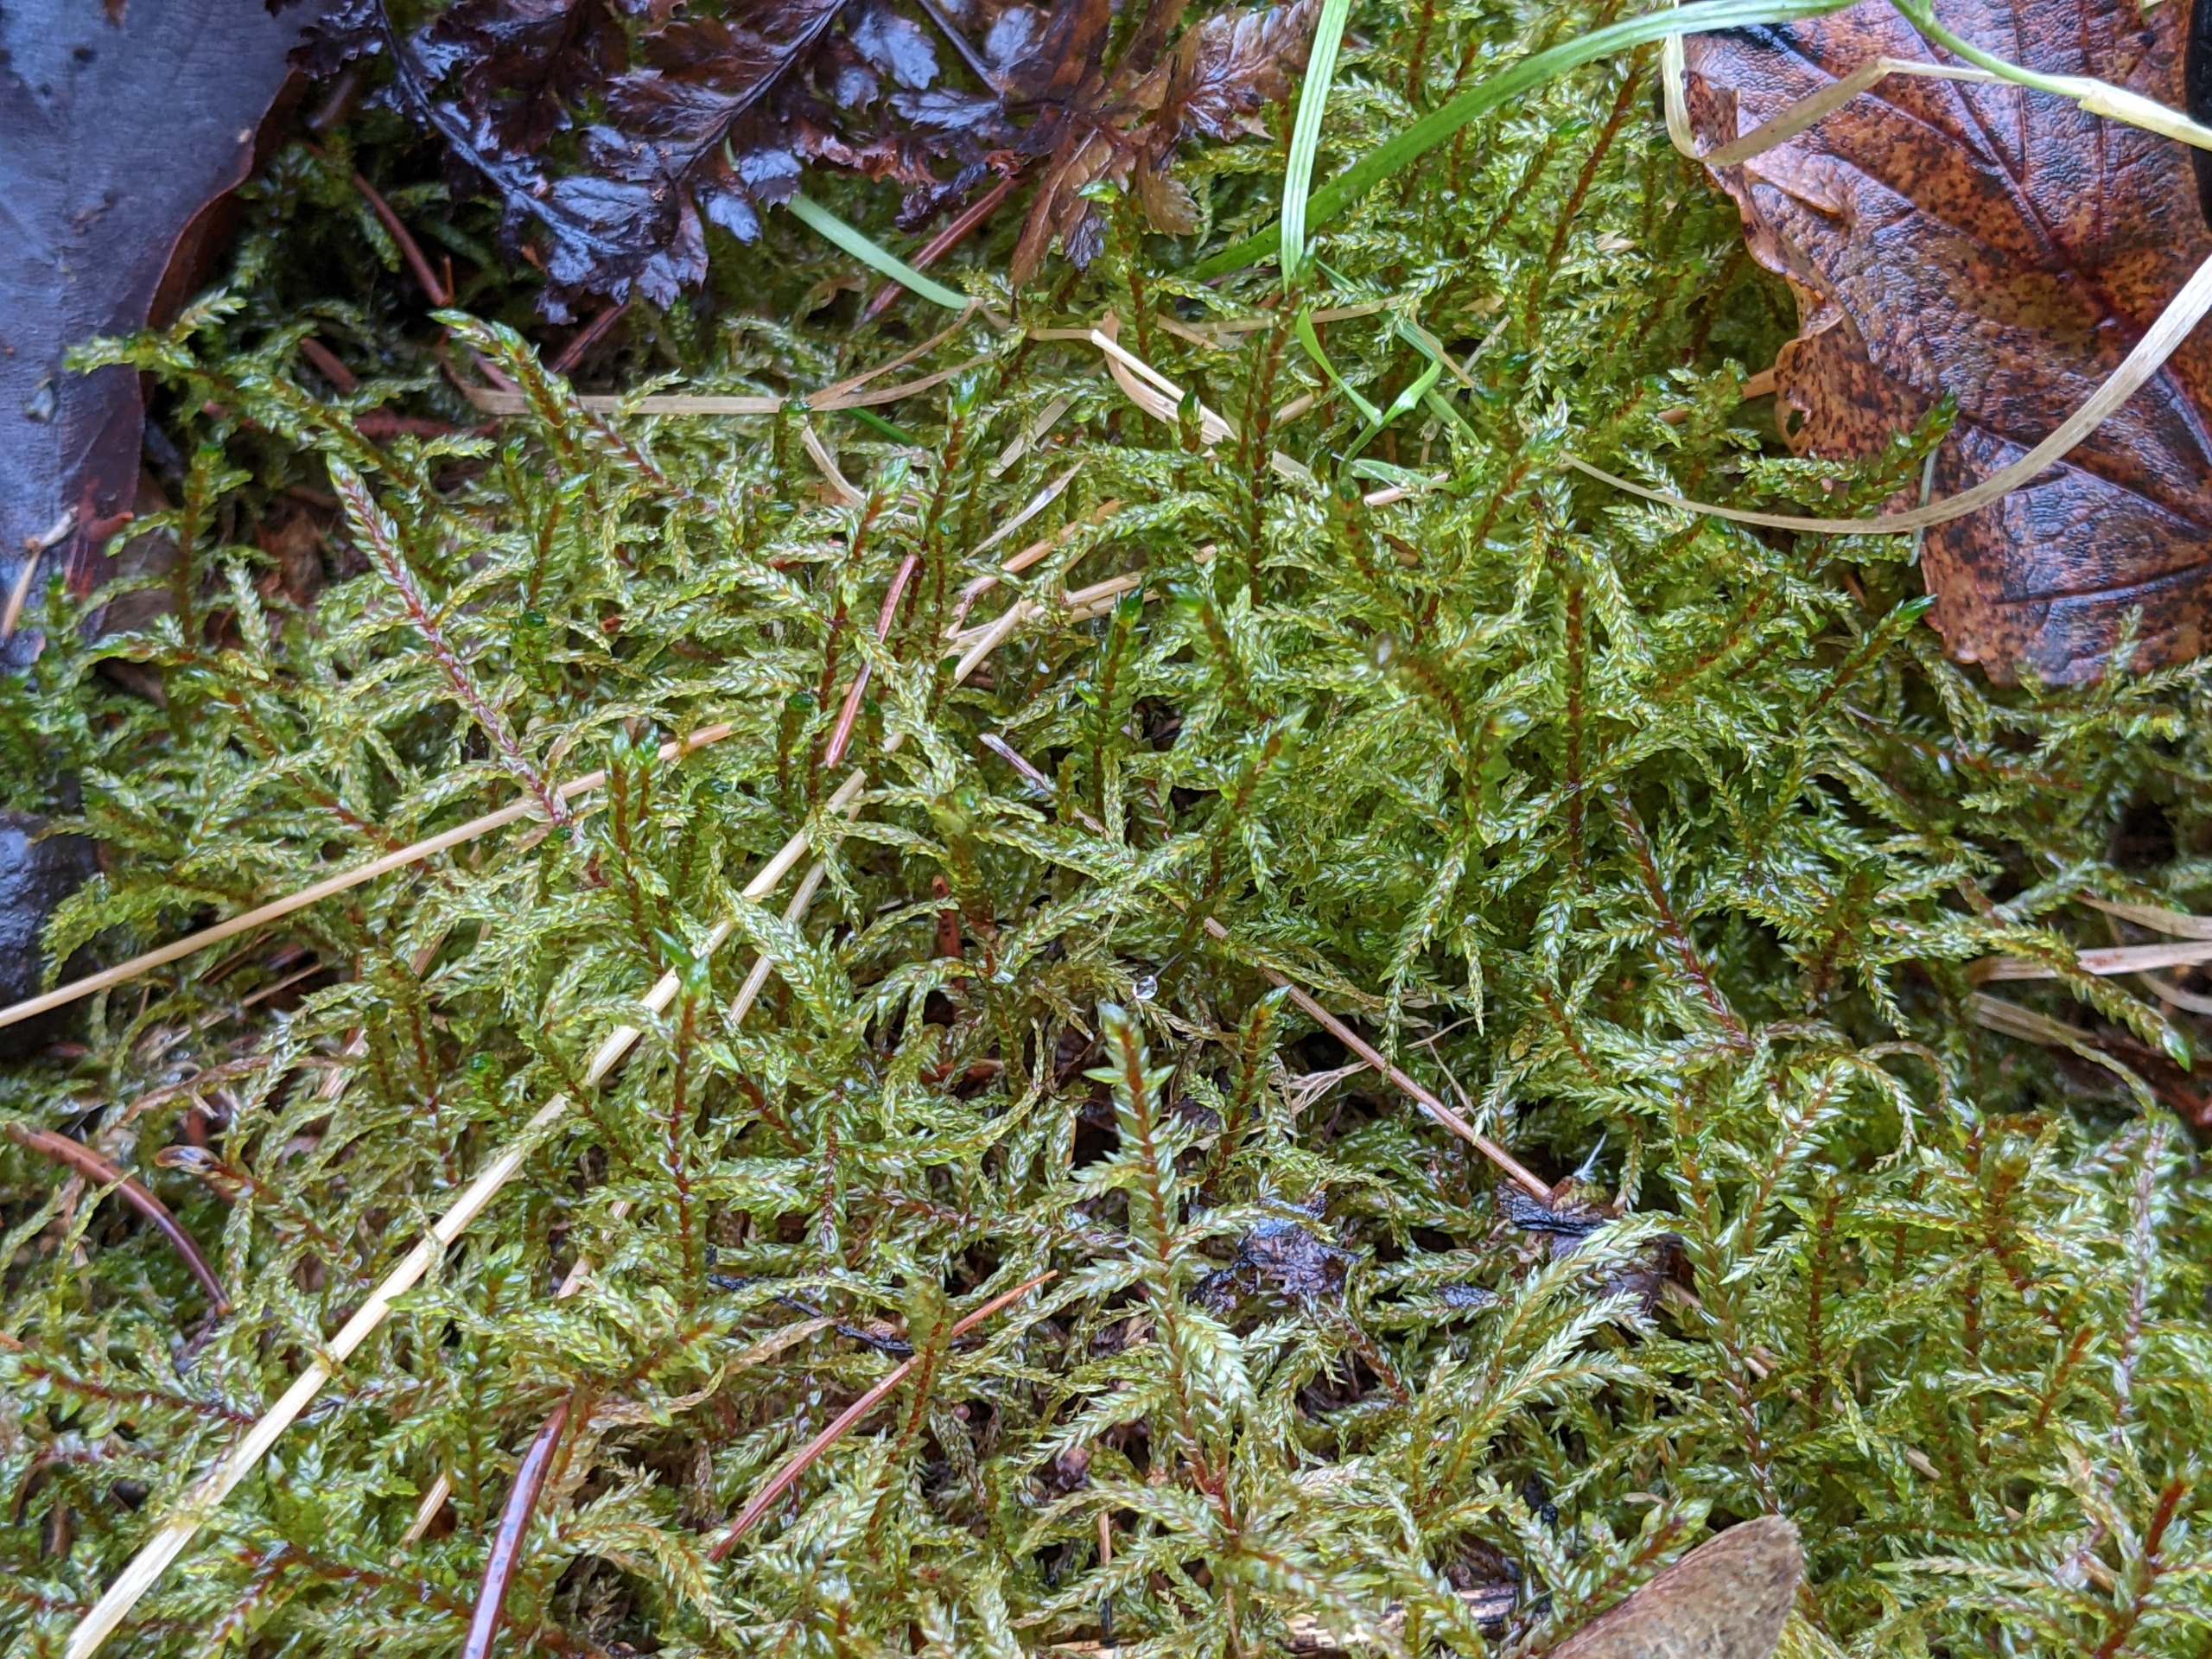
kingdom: Plantae
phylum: Bryophyta
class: Bryopsida
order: Hypnales
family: Hylocomiaceae
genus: Pleurozium
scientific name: Pleurozium schreberi
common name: Trind fyrremos
